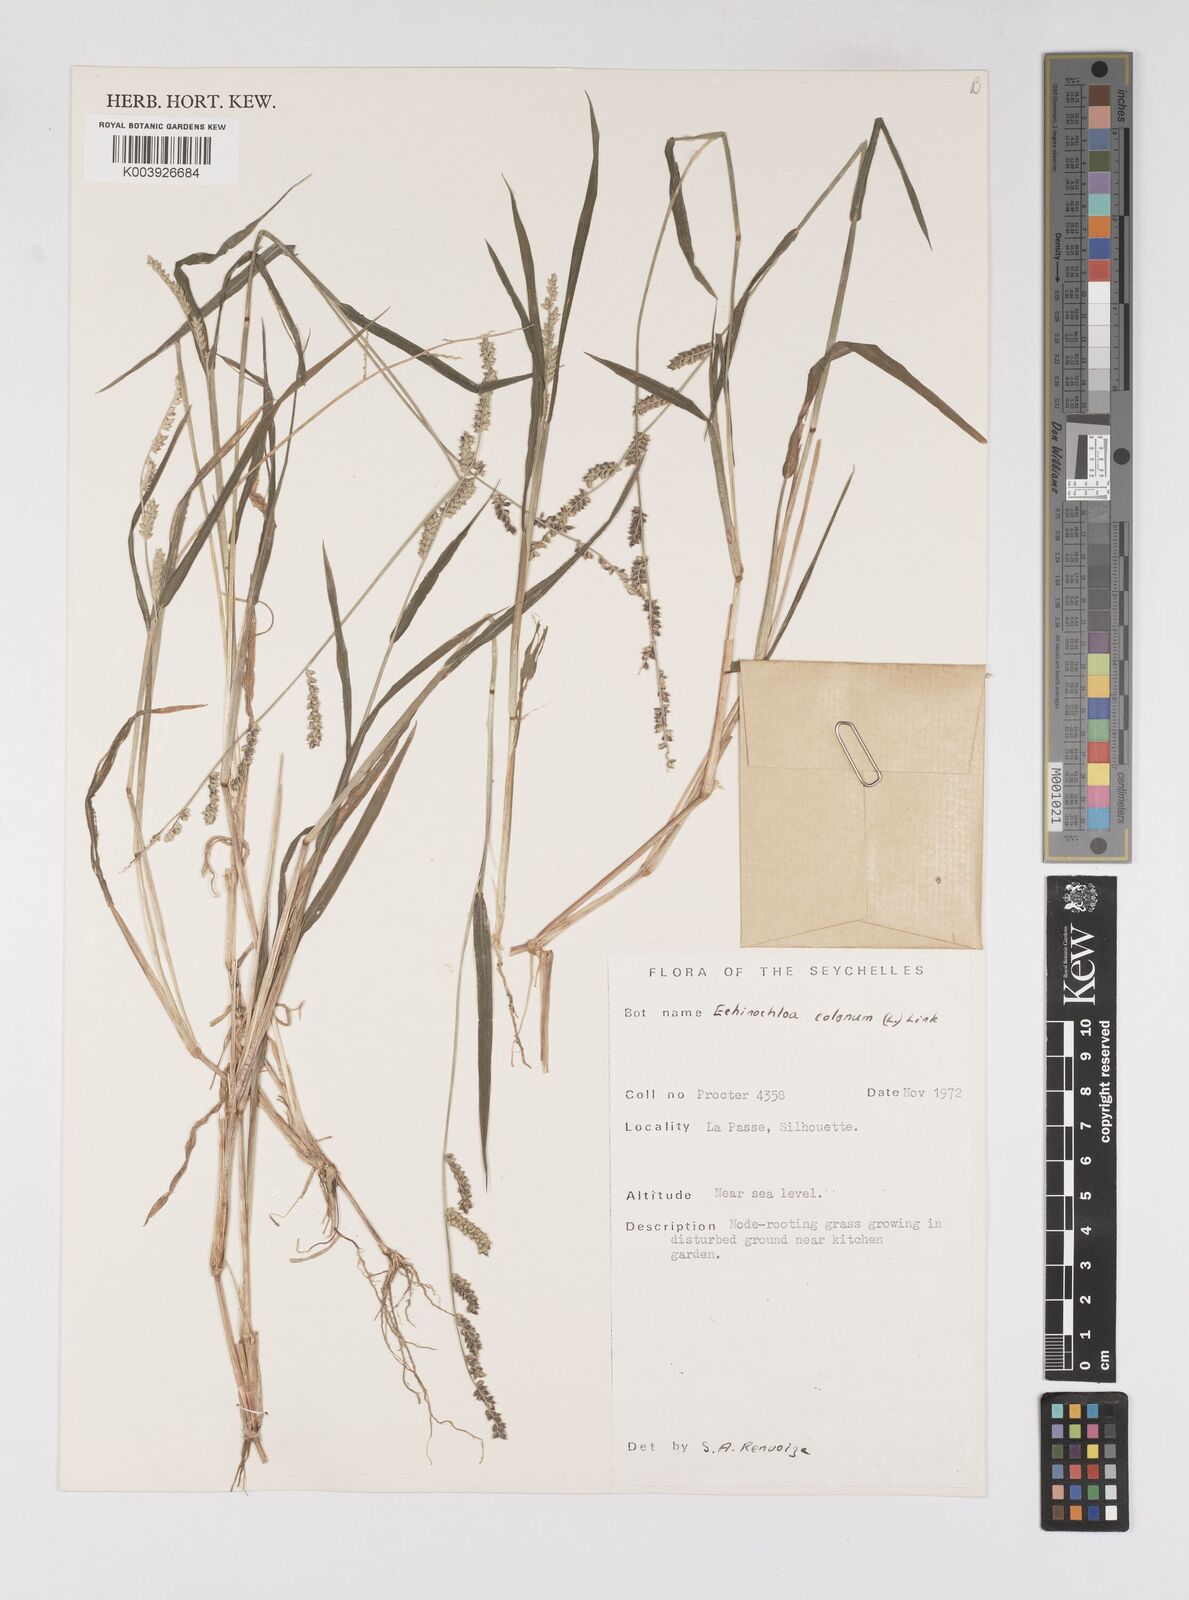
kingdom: Plantae
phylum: Tracheophyta
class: Liliopsida
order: Poales
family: Poaceae
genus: Echinochloa
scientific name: Echinochloa colonum
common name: Jungle rice
